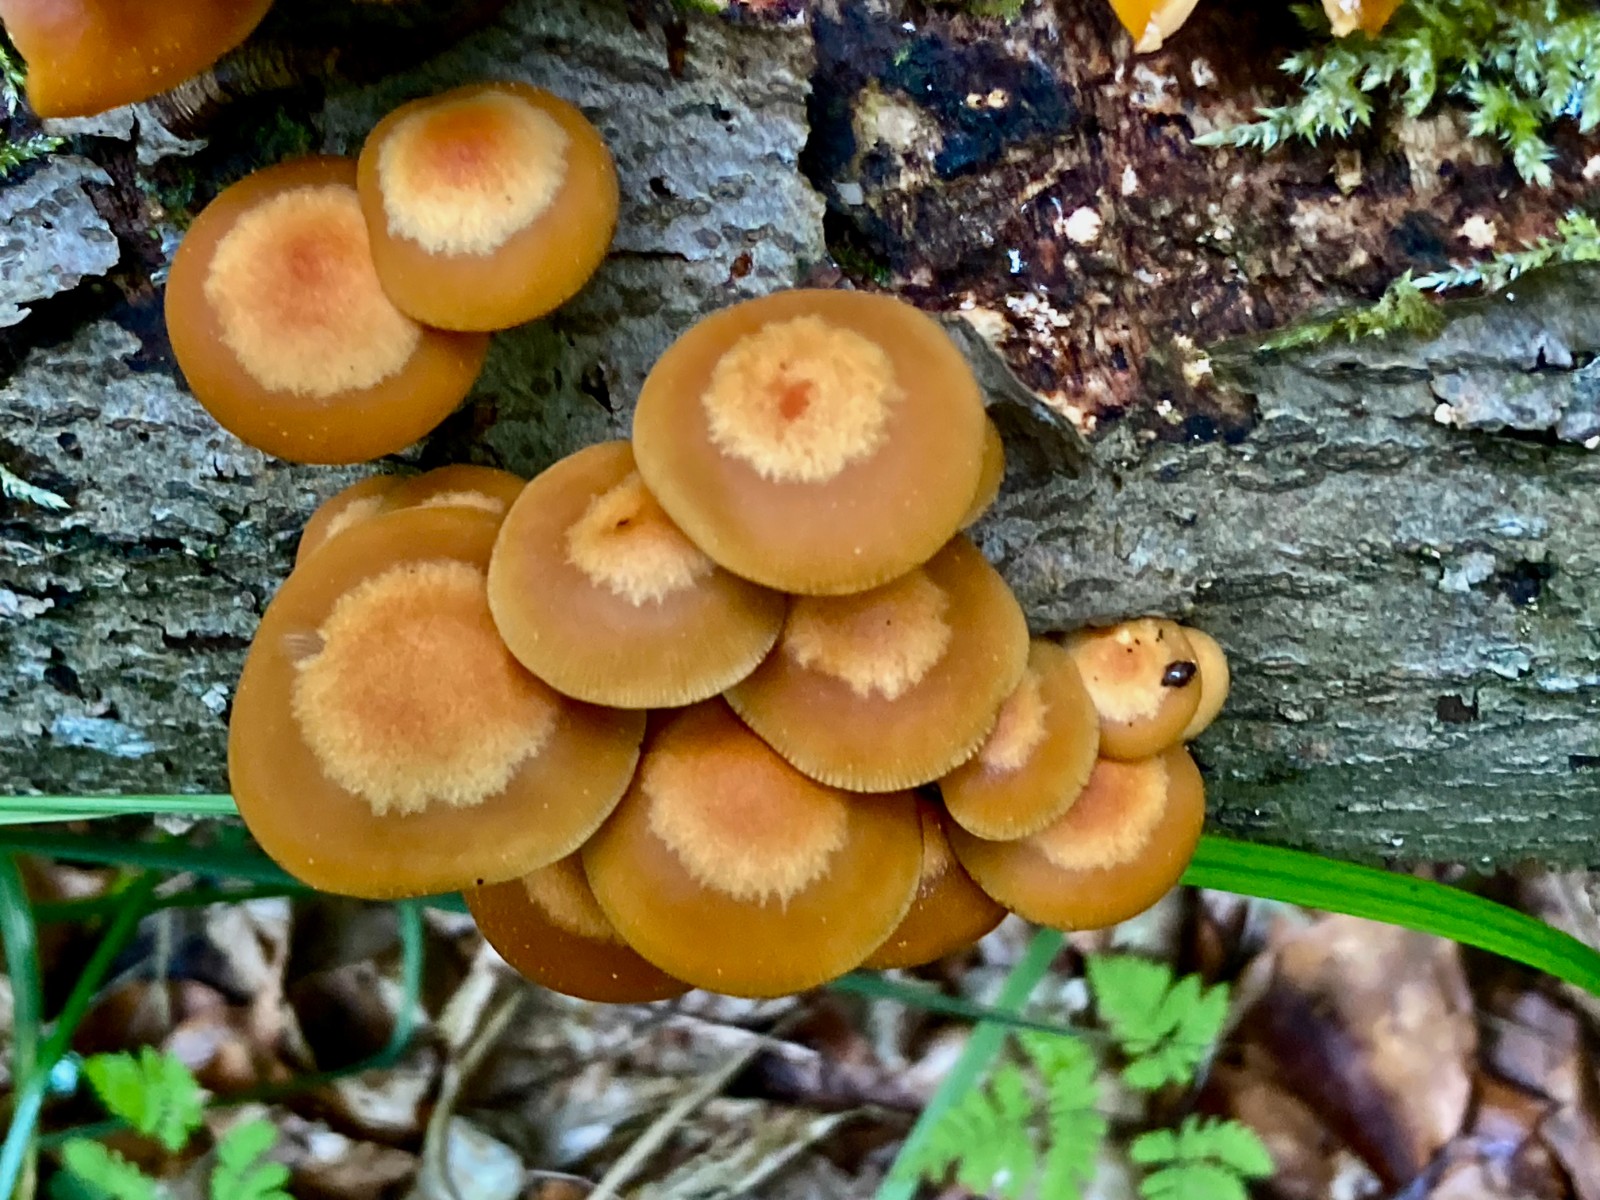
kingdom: Fungi
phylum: Basidiomycota
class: Agaricomycetes
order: Agaricales
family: Strophariaceae
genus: Kuehneromyces
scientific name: Kuehneromyces mutabilis
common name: foranderlig skælhat
